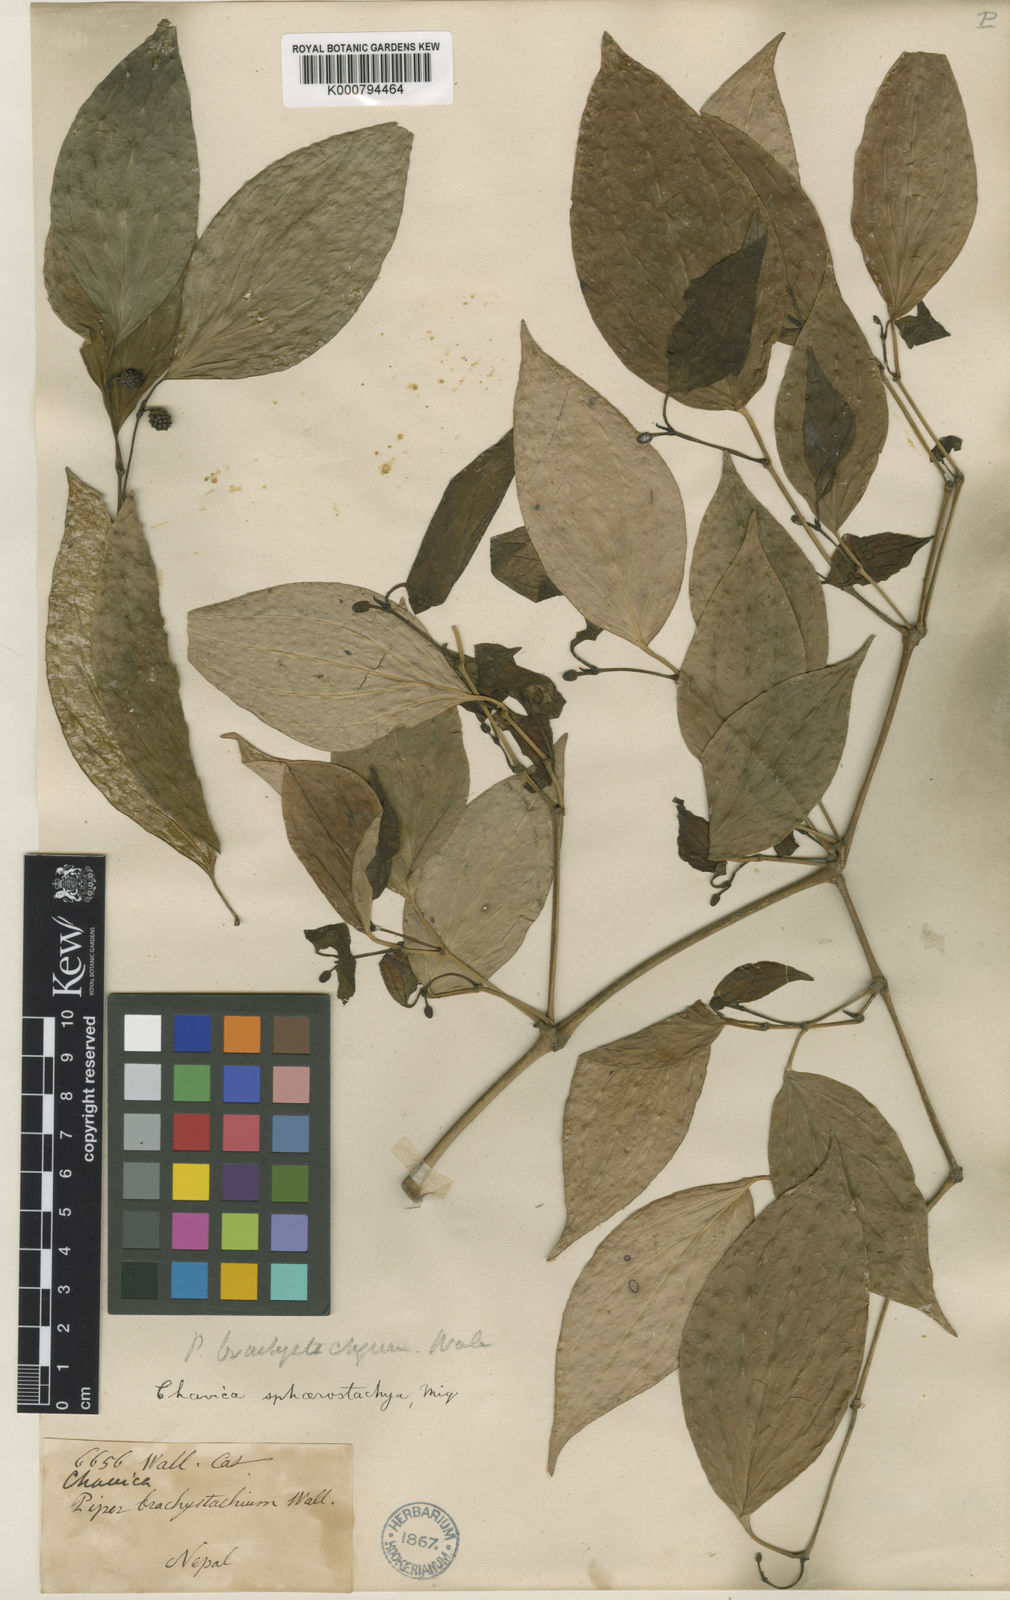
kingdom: Plantae
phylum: Tracheophyta
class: Magnoliopsida
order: Piperales
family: Piperaceae
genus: Piper
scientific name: Piper
